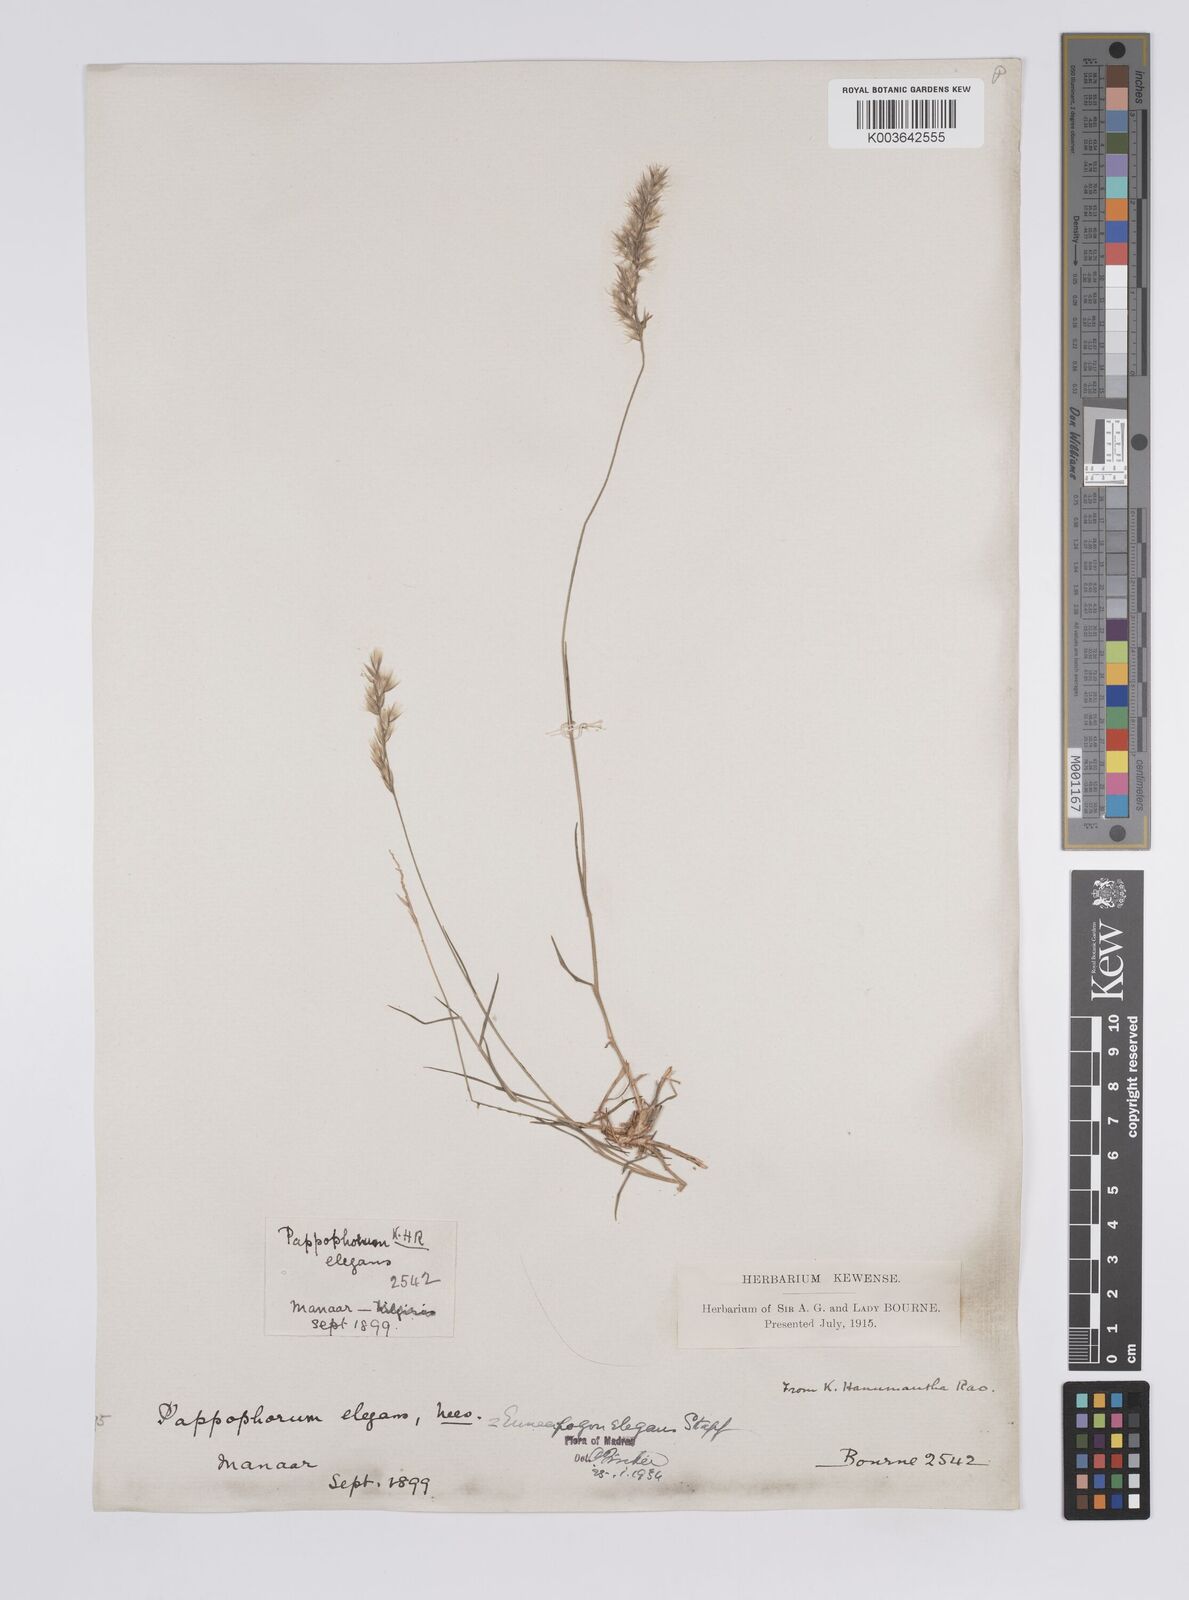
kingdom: Plantae
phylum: Tracheophyta
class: Liliopsida
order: Poales
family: Poaceae
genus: Enneapogon
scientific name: Enneapogon persicus
